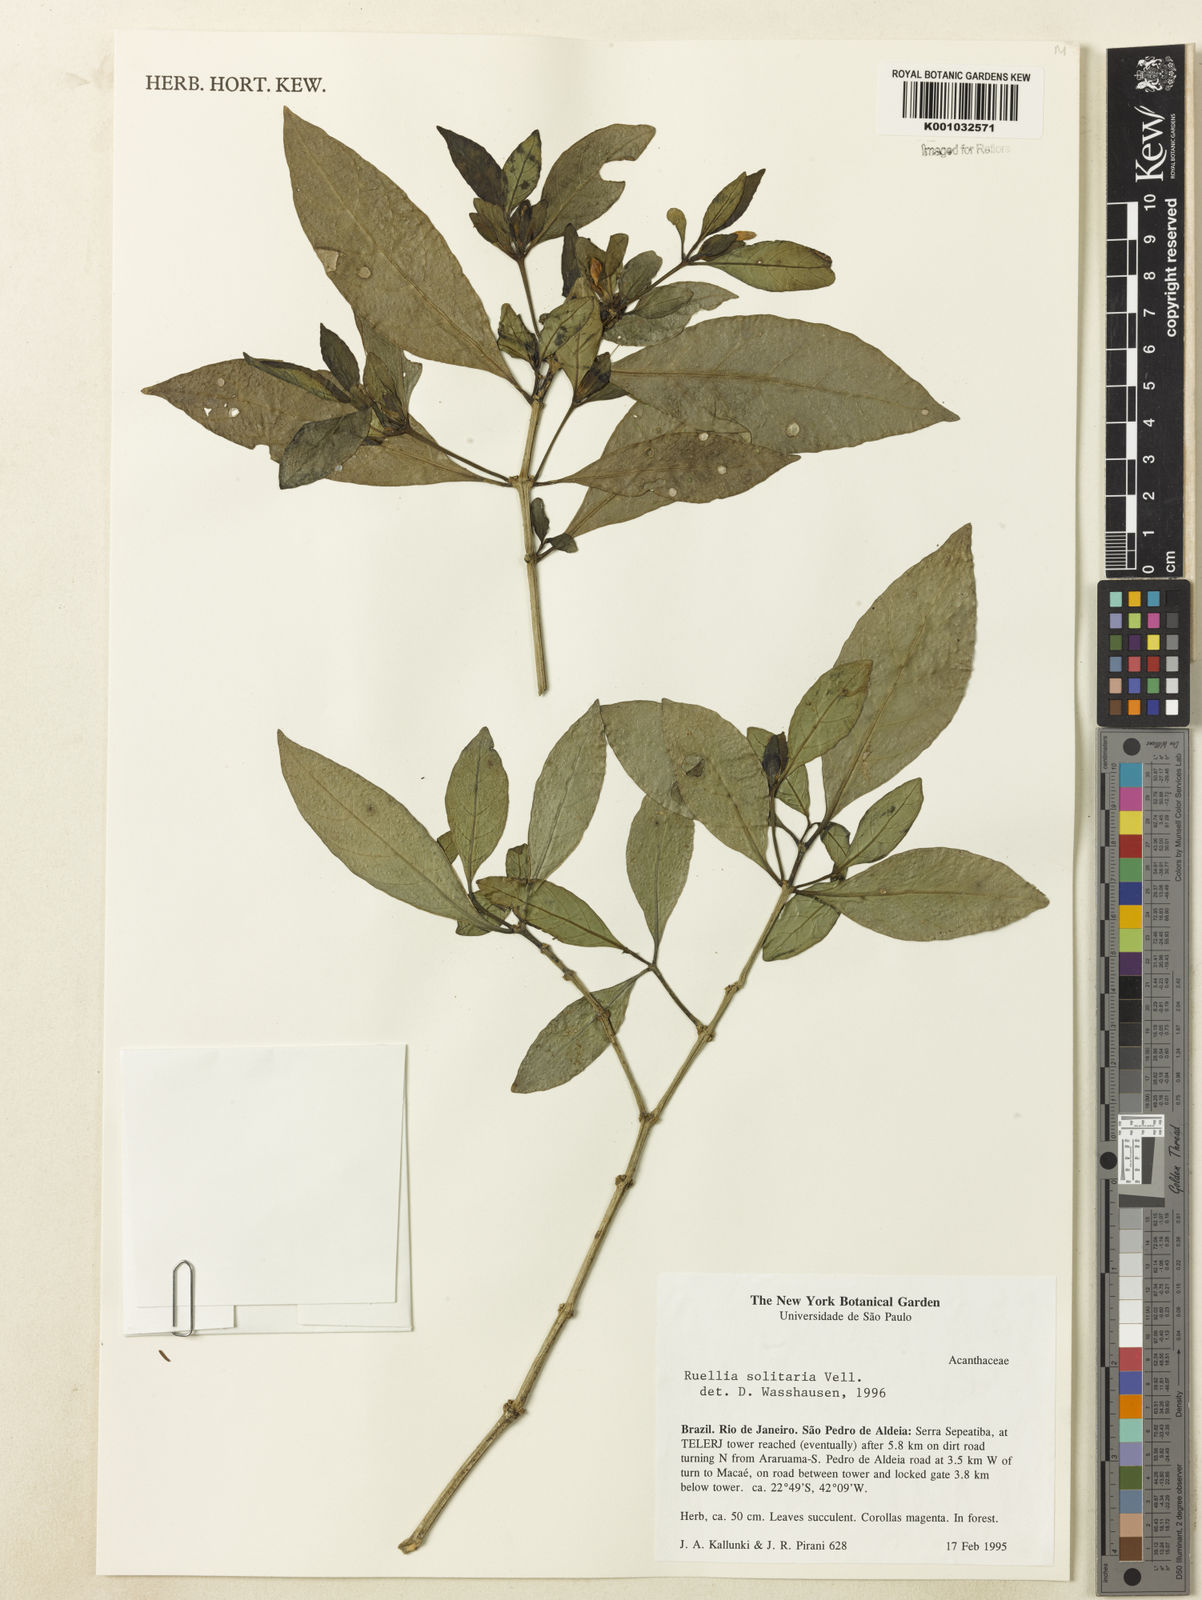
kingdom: Plantae
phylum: Tracheophyta
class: Magnoliopsida
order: Lamiales
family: Acanthaceae
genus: Ruellia
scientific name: Ruellia solitaria
